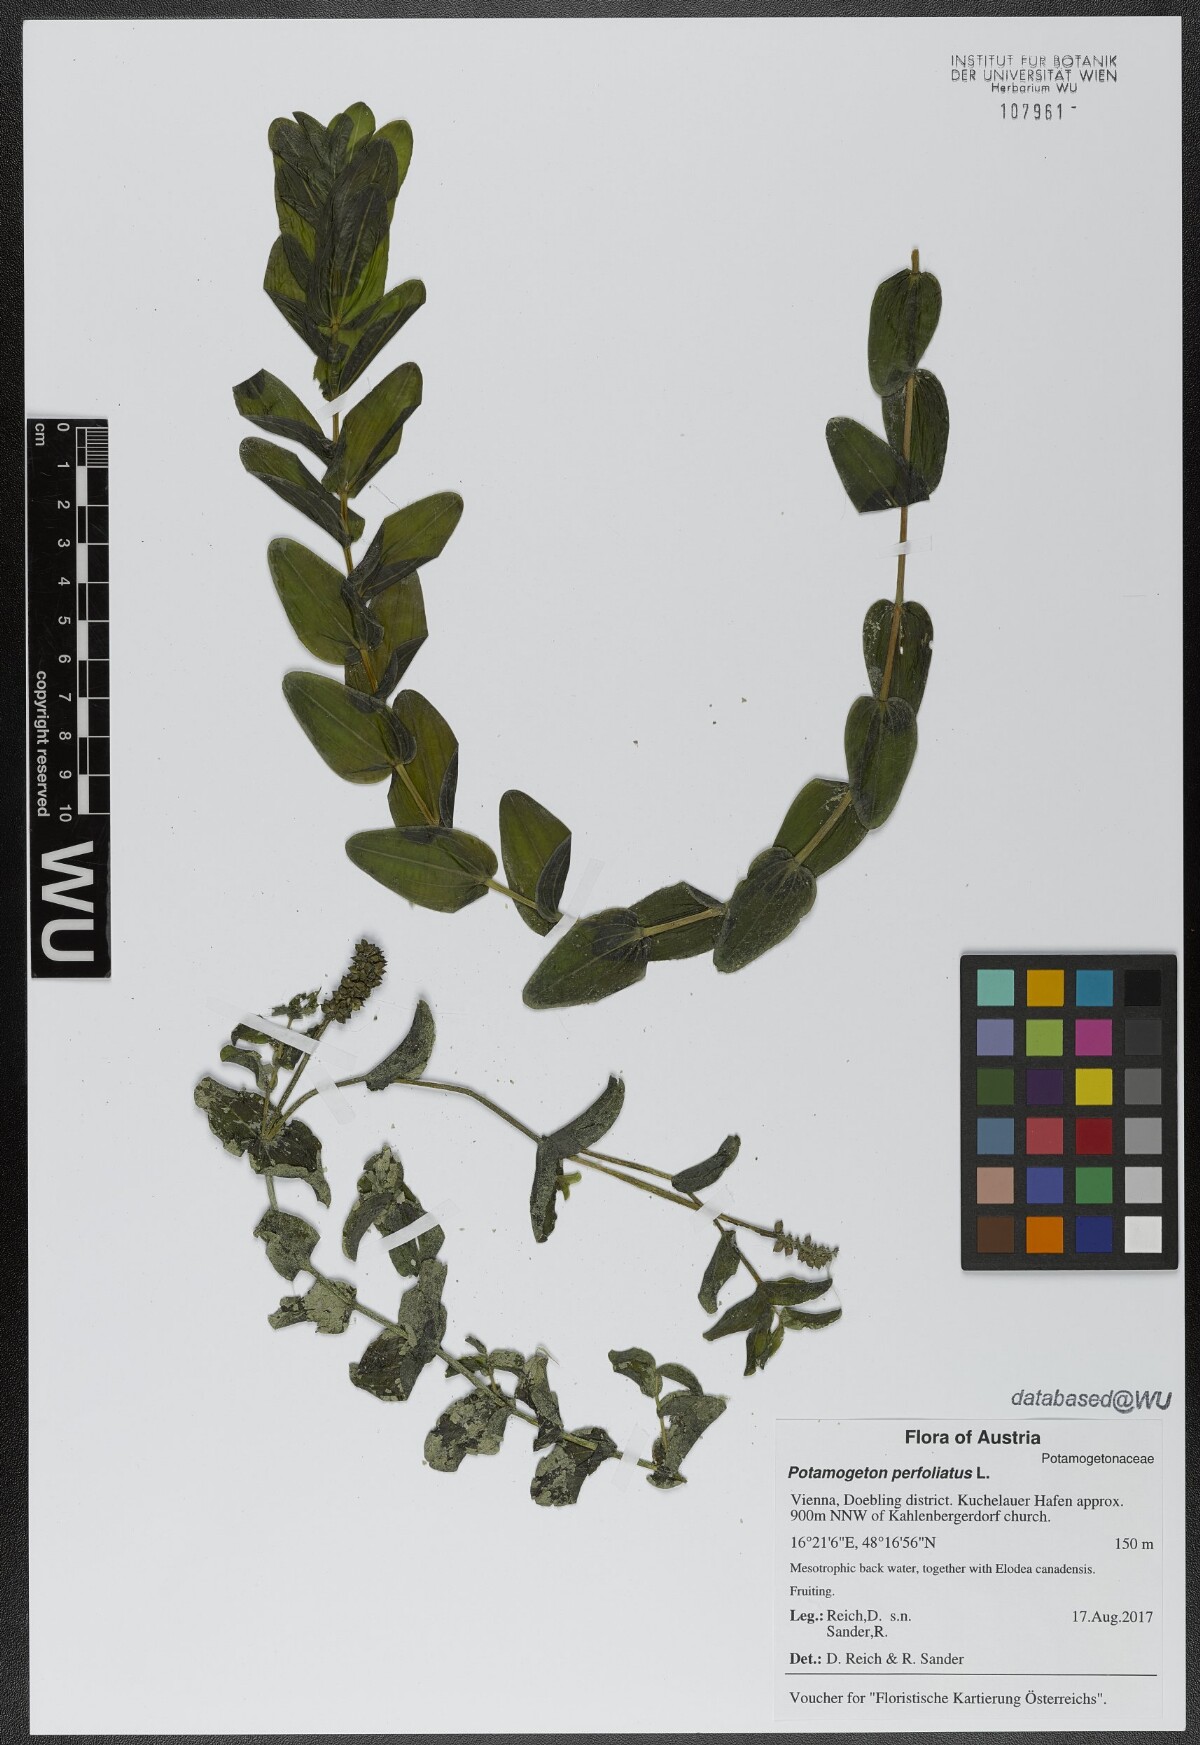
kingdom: Plantae
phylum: Tracheophyta
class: Liliopsida
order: Alismatales
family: Potamogetonaceae
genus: Potamogeton
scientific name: Potamogeton perfoliatus
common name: Perfoliate pondweed
